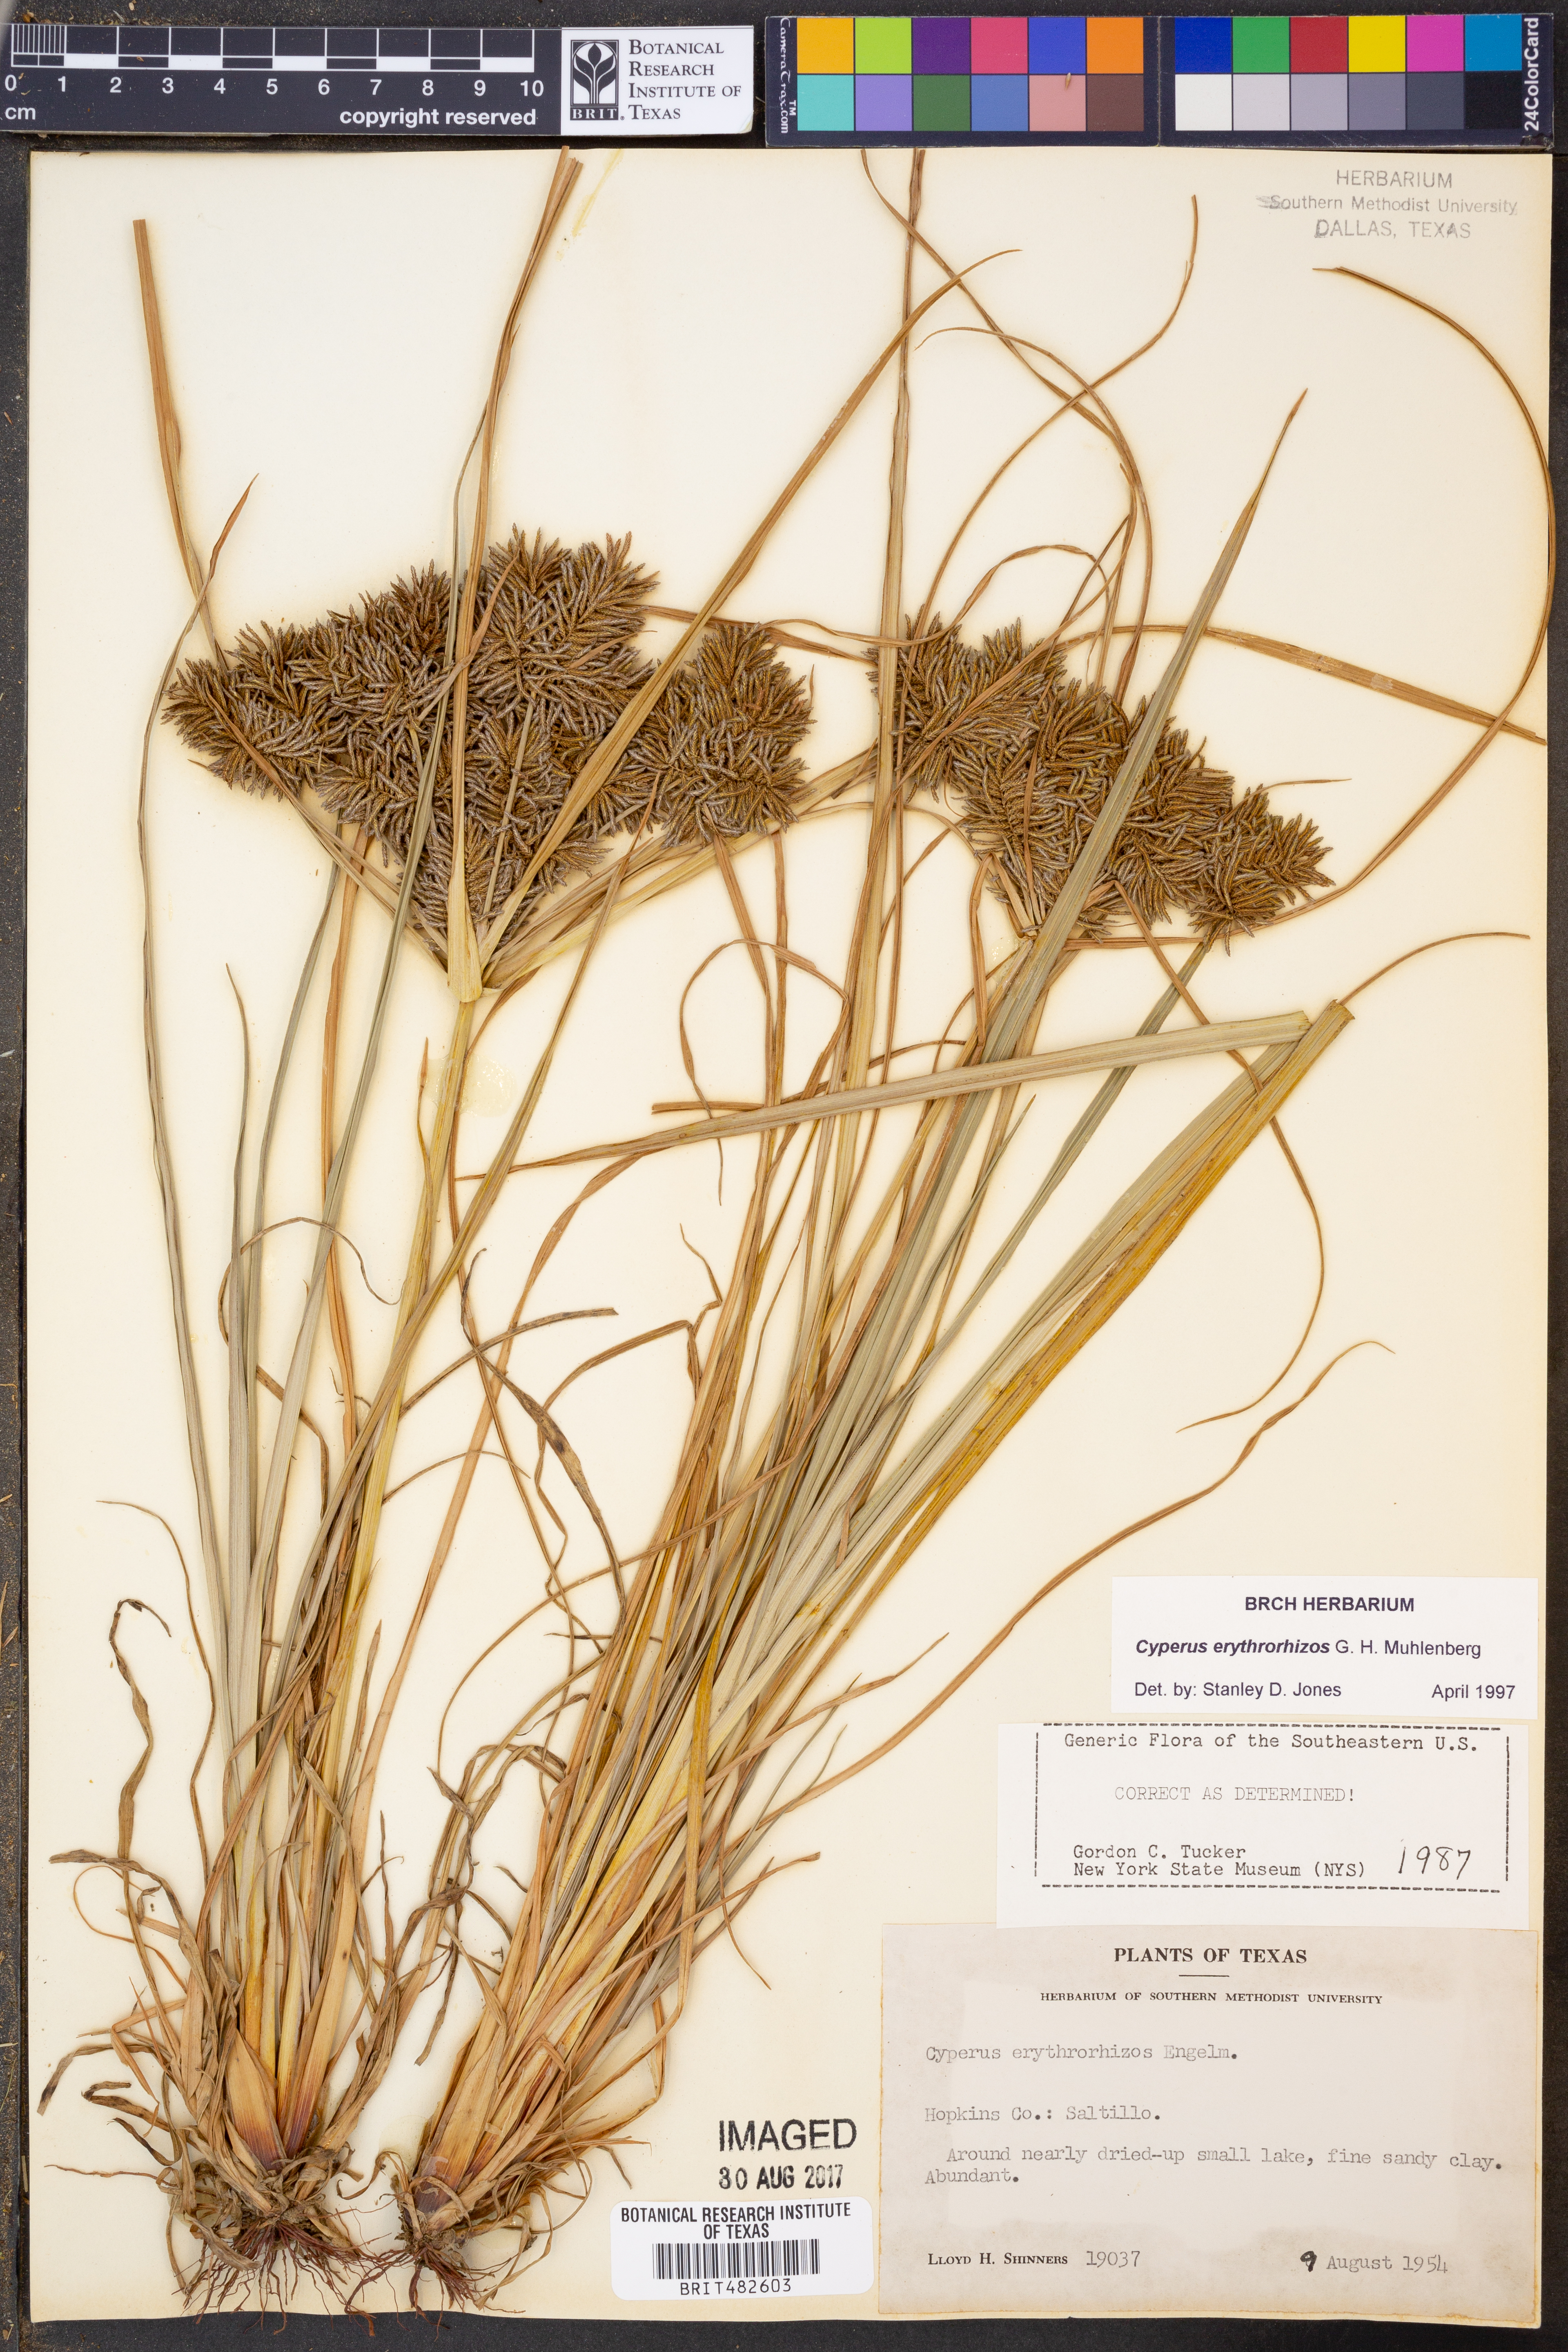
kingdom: Plantae
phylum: Tracheophyta
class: Liliopsida
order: Poales
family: Cyperaceae
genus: Cyperus
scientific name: Cyperus erythrorhizos
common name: Red-root flat sedge
